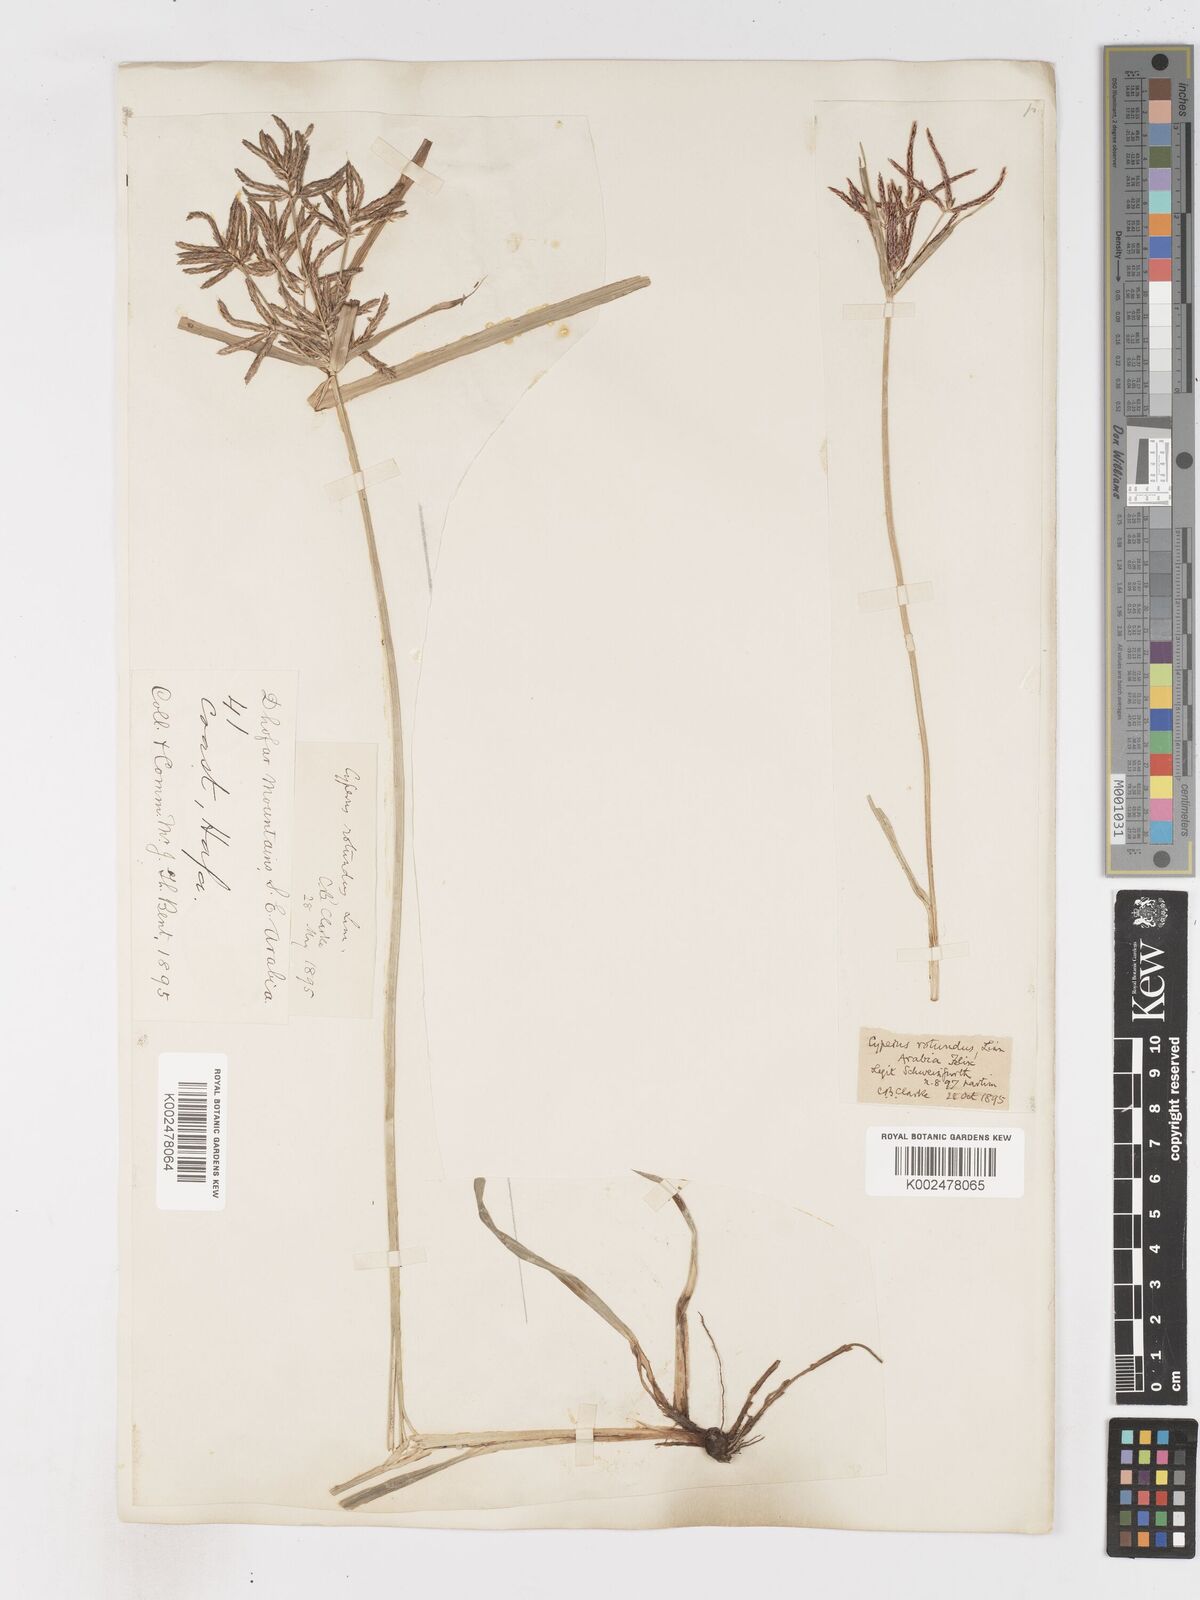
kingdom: Plantae
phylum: Tracheophyta
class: Liliopsida
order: Poales
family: Cyperaceae
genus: Cyperus
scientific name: Cyperus rotundus
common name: Nutgrass
